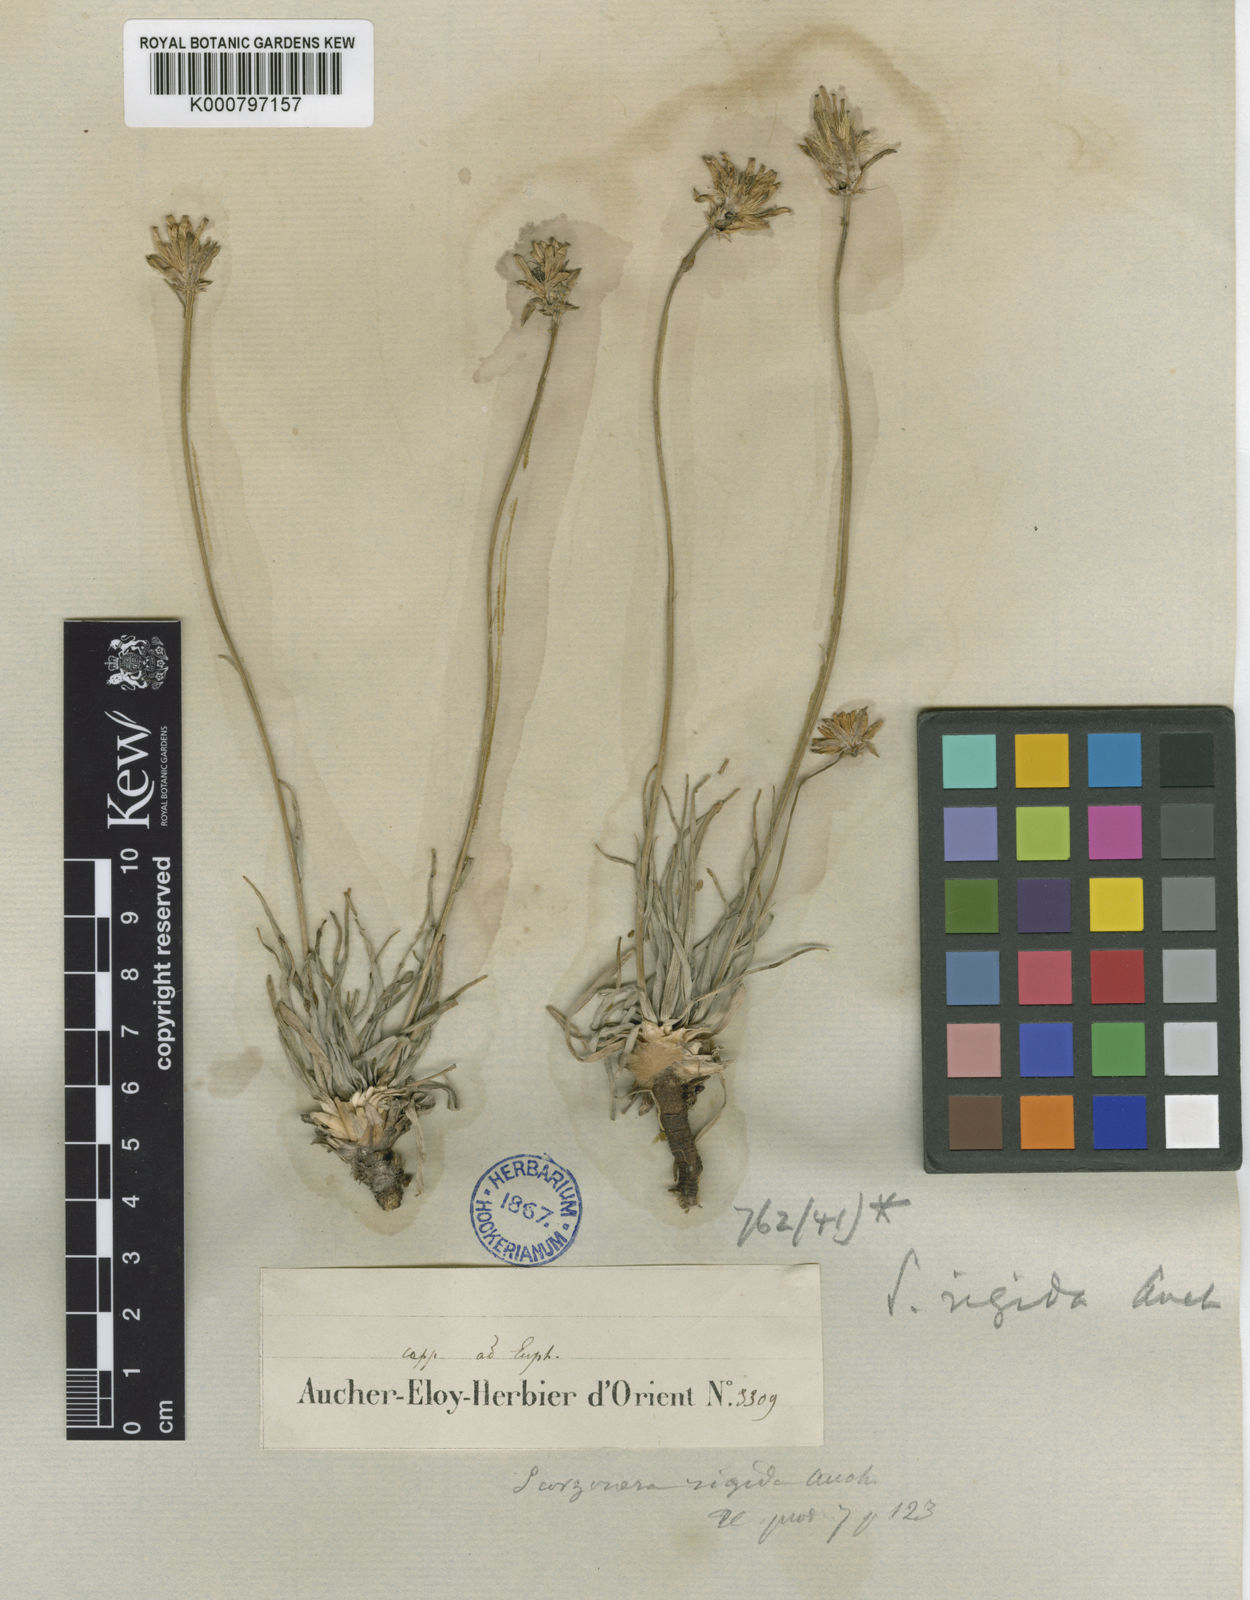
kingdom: Plantae
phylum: Tracheophyta
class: Magnoliopsida
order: Asterales
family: Asteraceae
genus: Goekyighitia
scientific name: Goekyighitia rigida
